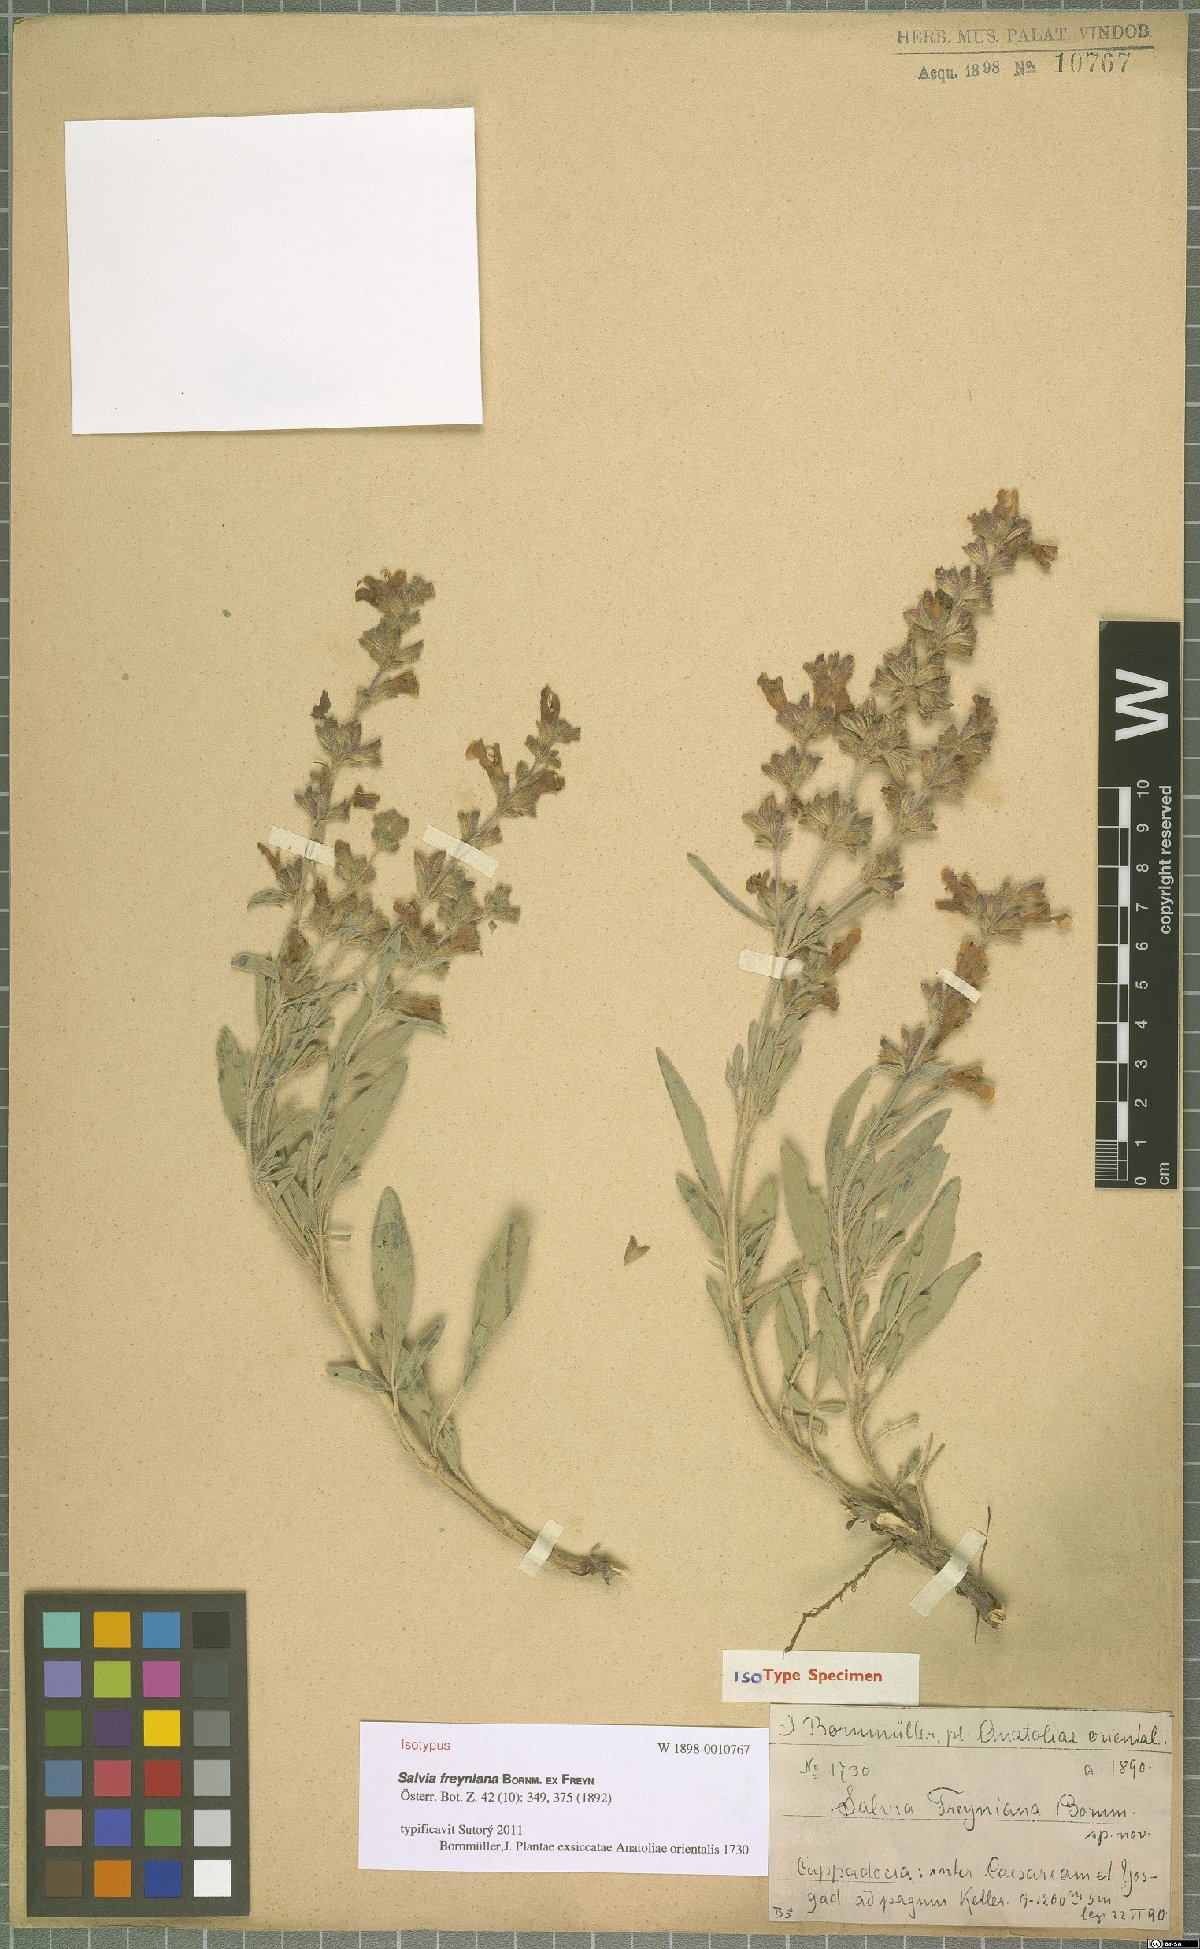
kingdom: Plantae
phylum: Tracheophyta
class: Magnoliopsida
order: Lamiales
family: Lamiaceae
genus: Salvia
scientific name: Salvia freyniana
